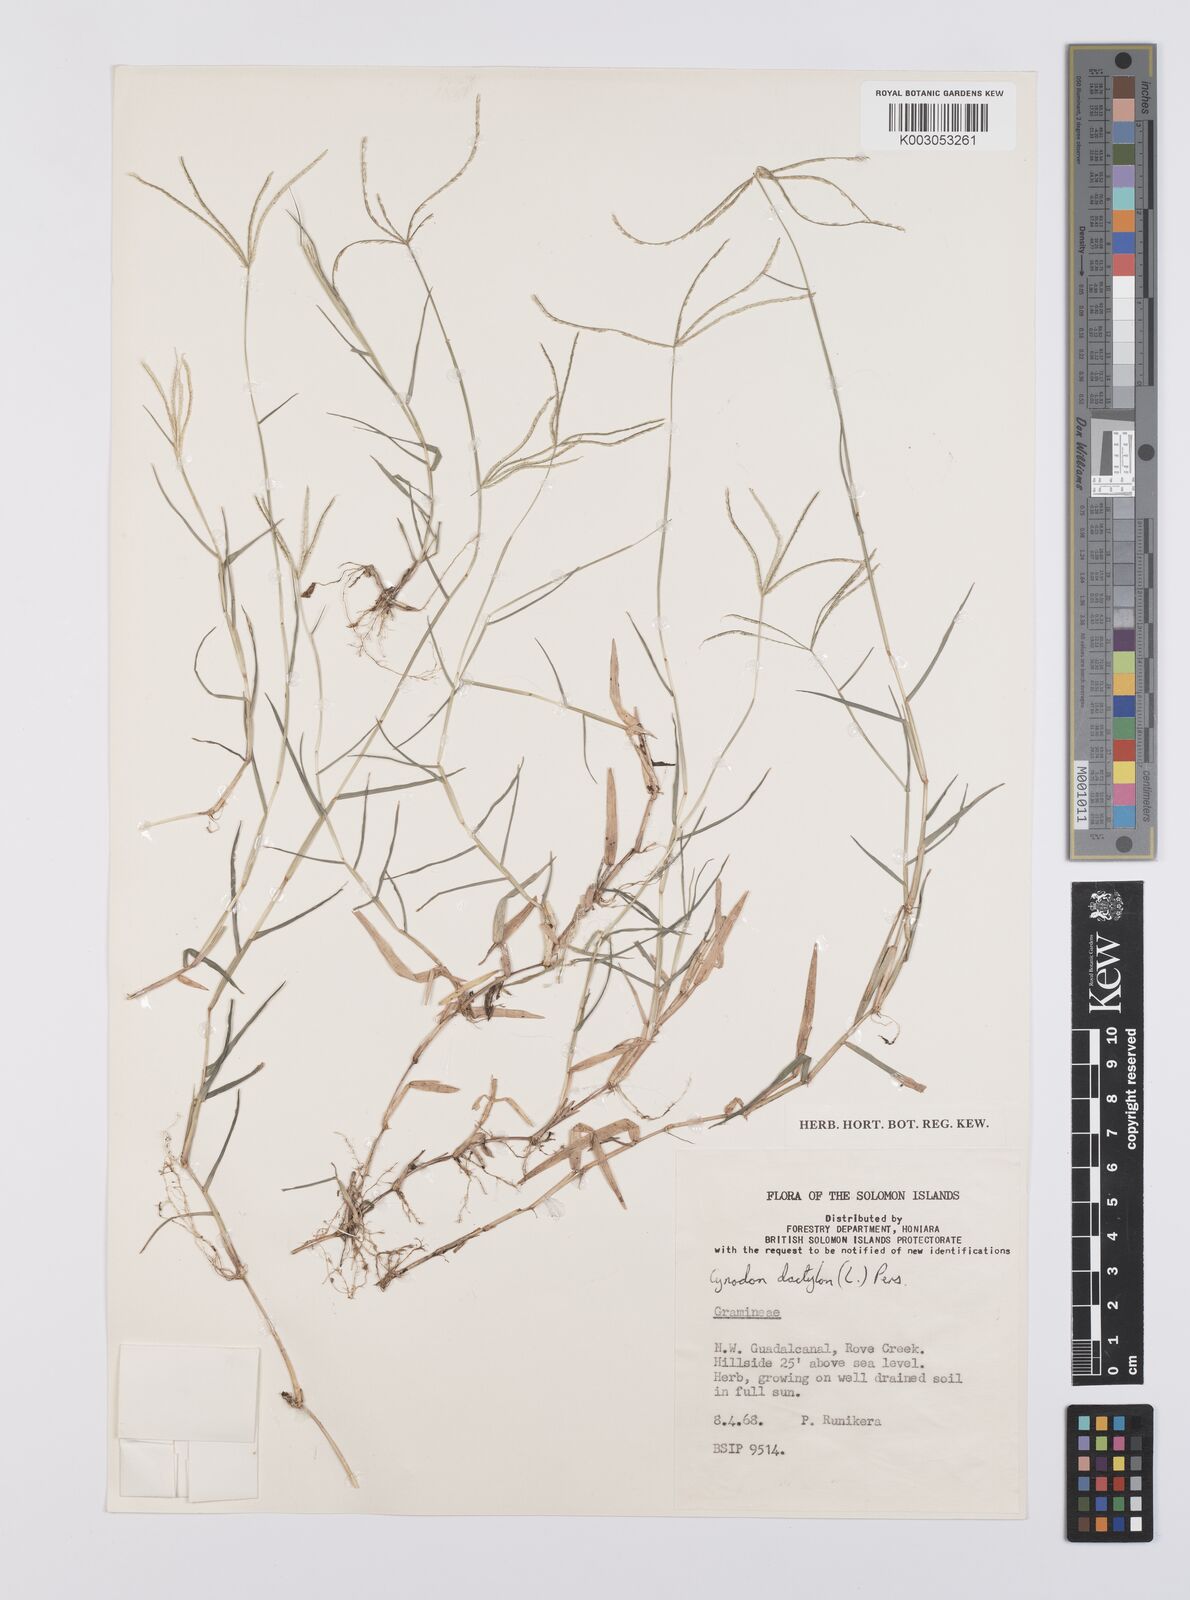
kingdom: Plantae
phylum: Tracheophyta
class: Liliopsida
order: Poales
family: Poaceae
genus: Cynodon
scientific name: Cynodon dactylon
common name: Bermuda grass
